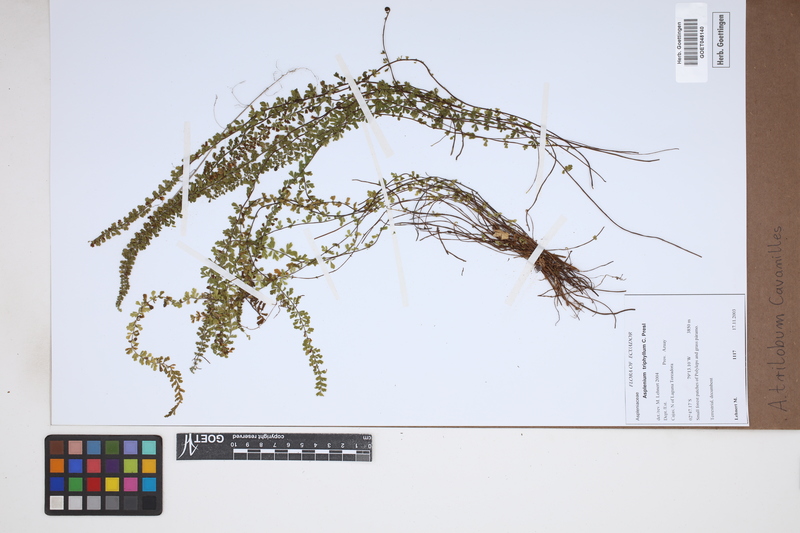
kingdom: Plantae
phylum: Tracheophyta
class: Polypodiopsida
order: Polypodiales
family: Aspleniaceae
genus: Asplenium
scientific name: Asplenium trilobum
